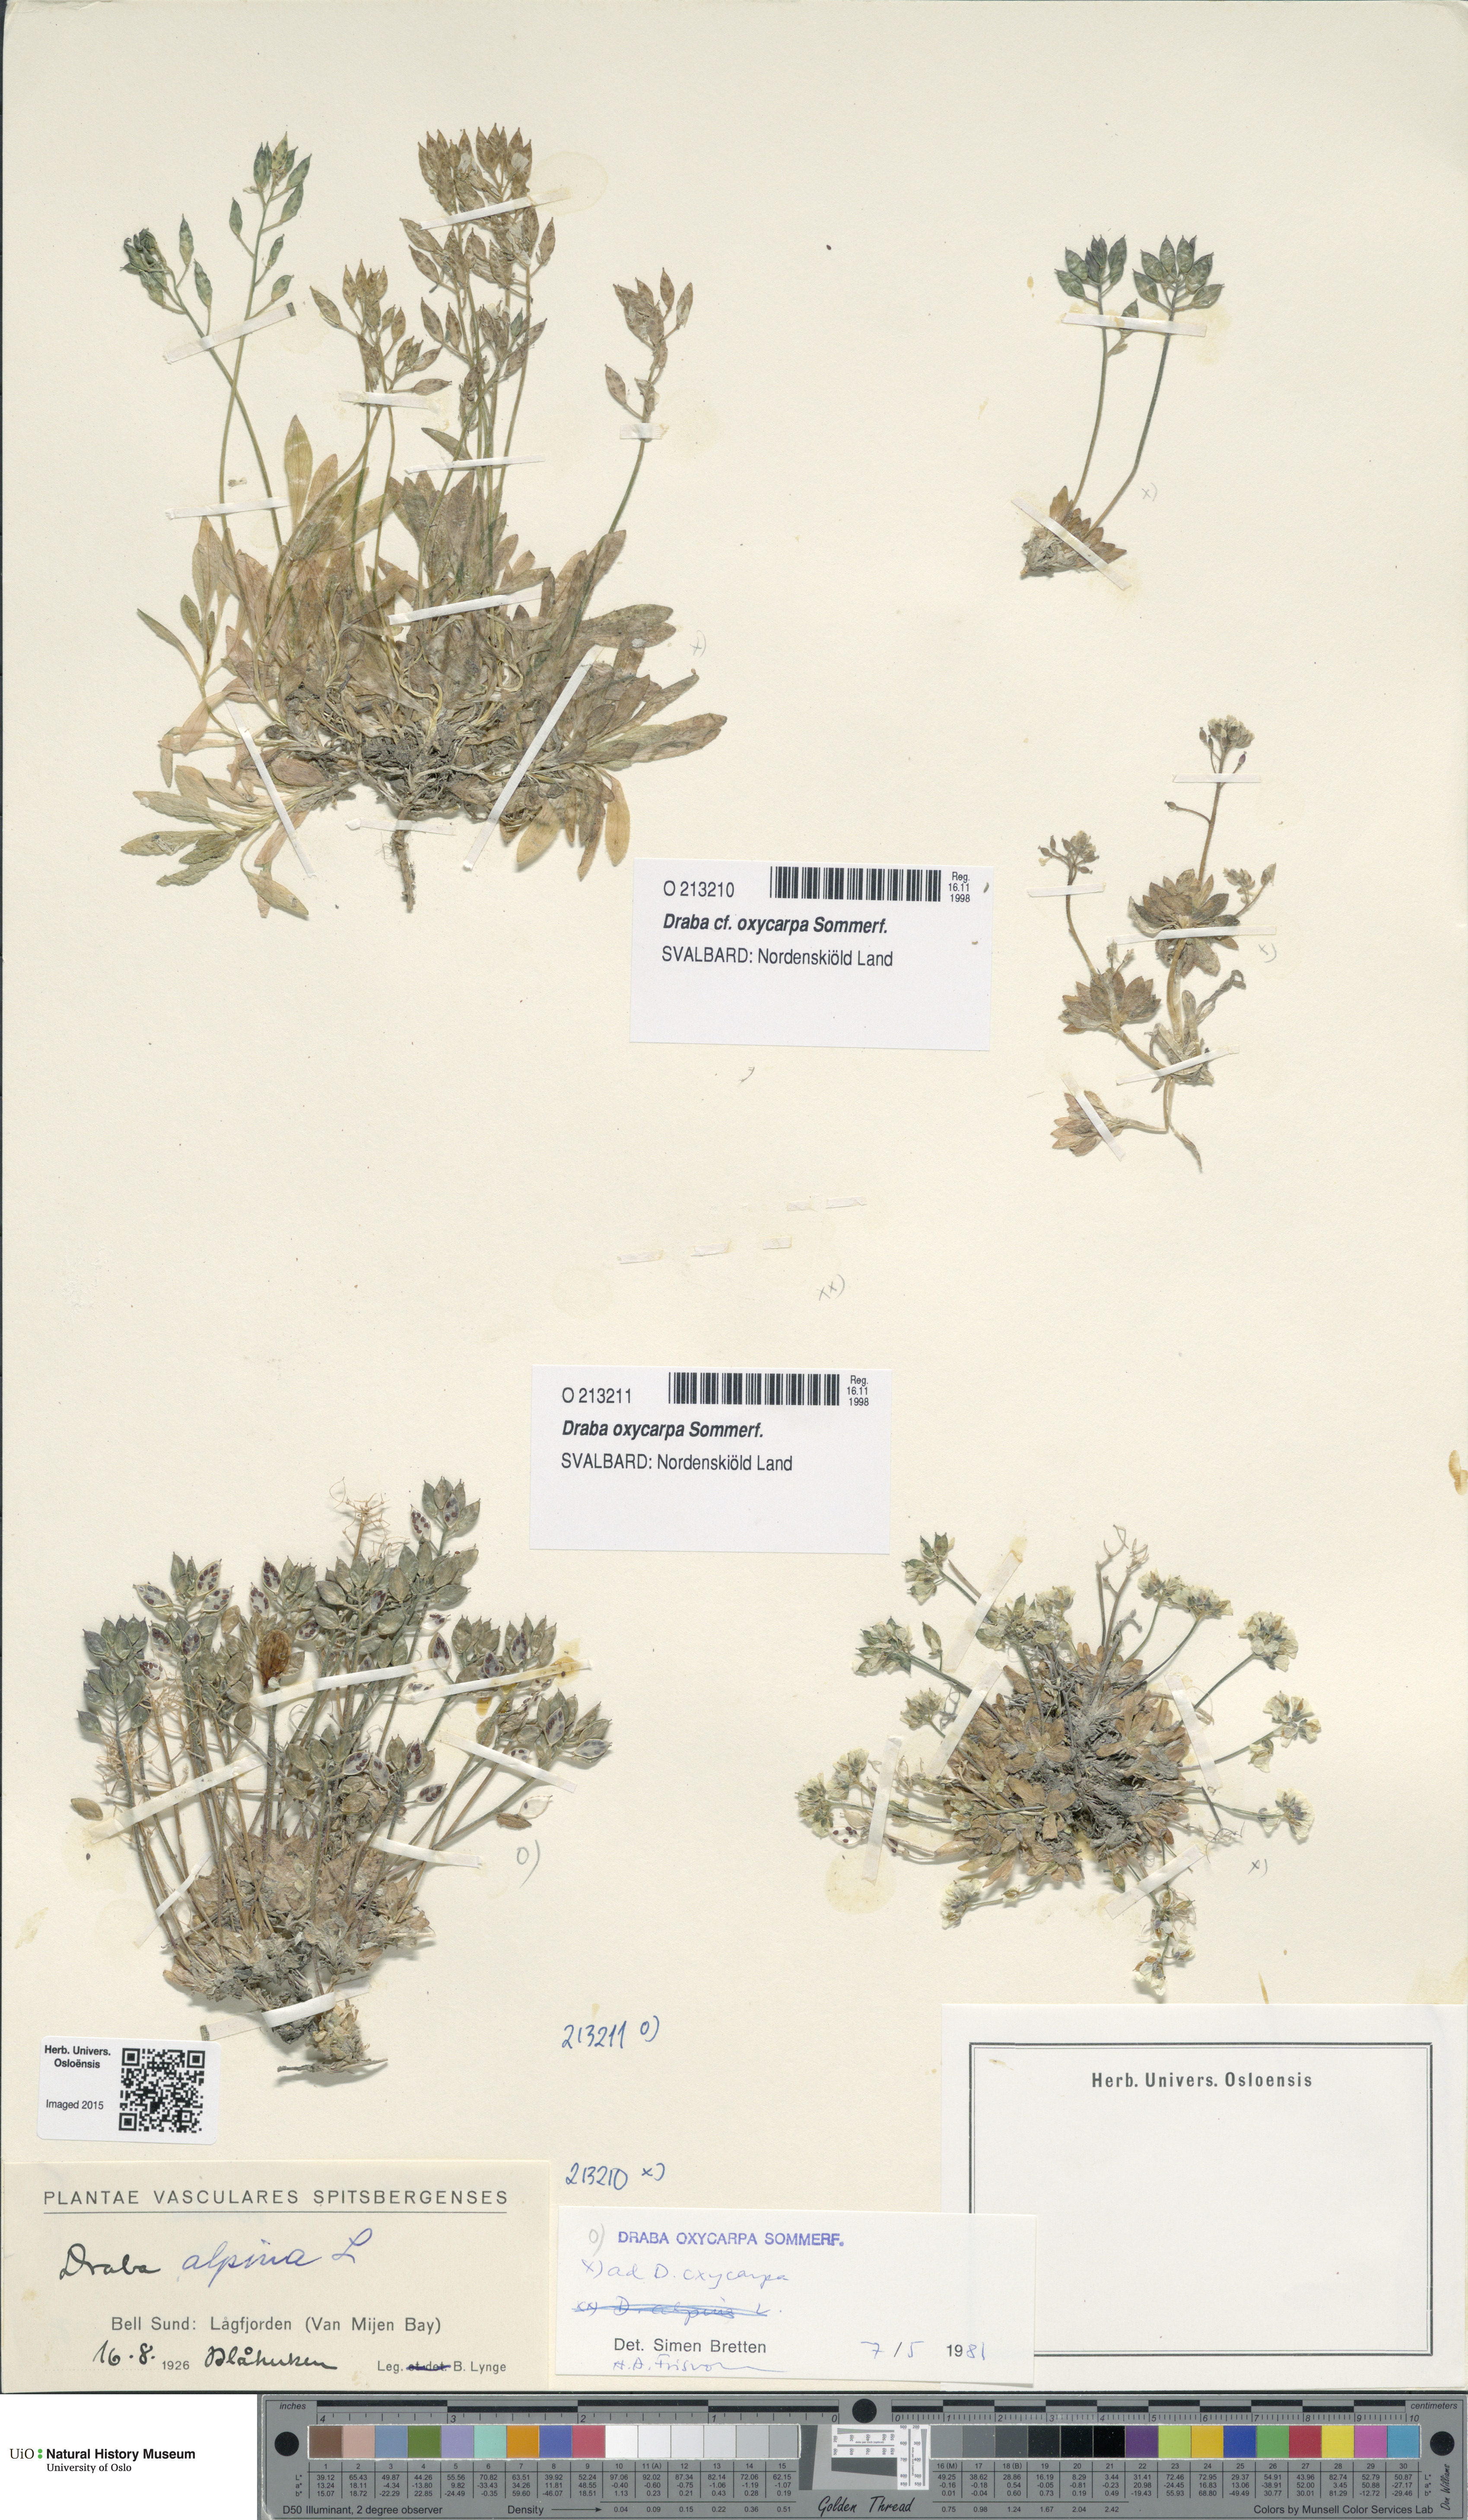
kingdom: Plantae
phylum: Tracheophyta
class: Magnoliopsida
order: Brassicales
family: Brassicaceae
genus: Draba
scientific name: Draba oxycarpa
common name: Sharp-fruited whitlow-grass
